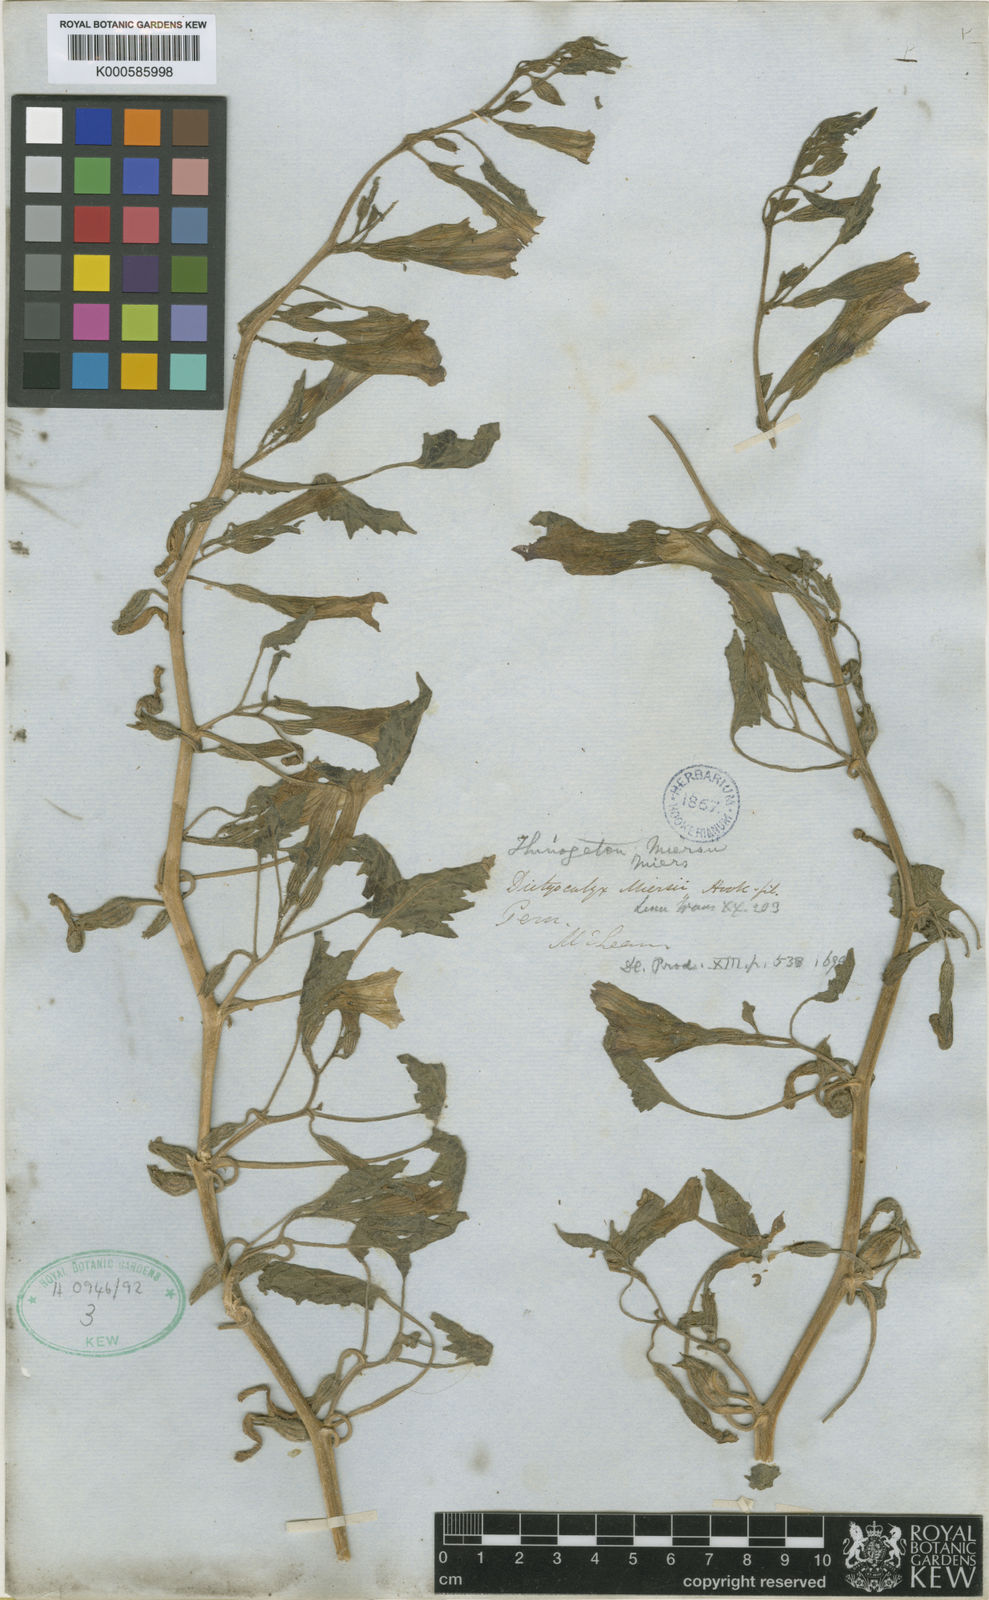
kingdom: Plantae
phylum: Tracheophyta
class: Magnoliopsida
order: Solanales
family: Solanaceae
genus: Exodeconus
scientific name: Exodeconus miersii
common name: Galapagos shore petunia
